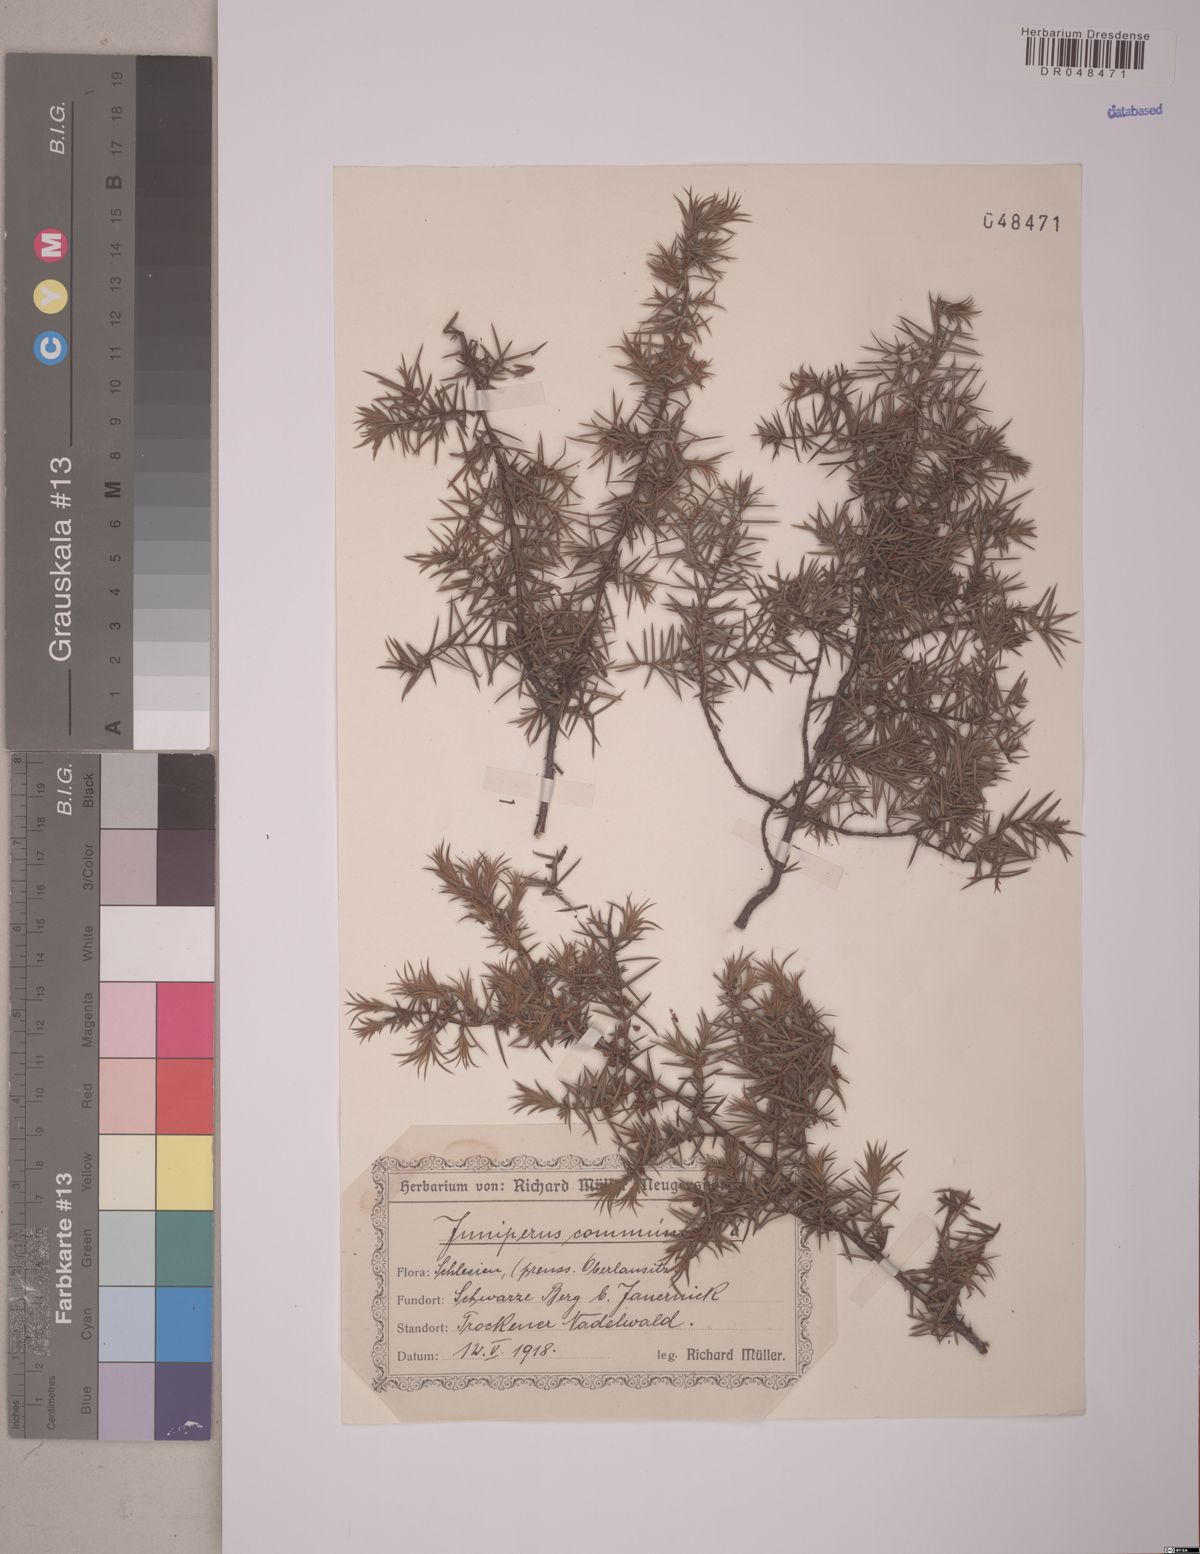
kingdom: Plantae
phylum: Tracheophyta
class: Pinopsida
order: Pinales
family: Cupressaceae
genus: Juniperus
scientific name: Juniperus communis
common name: Common juniper
